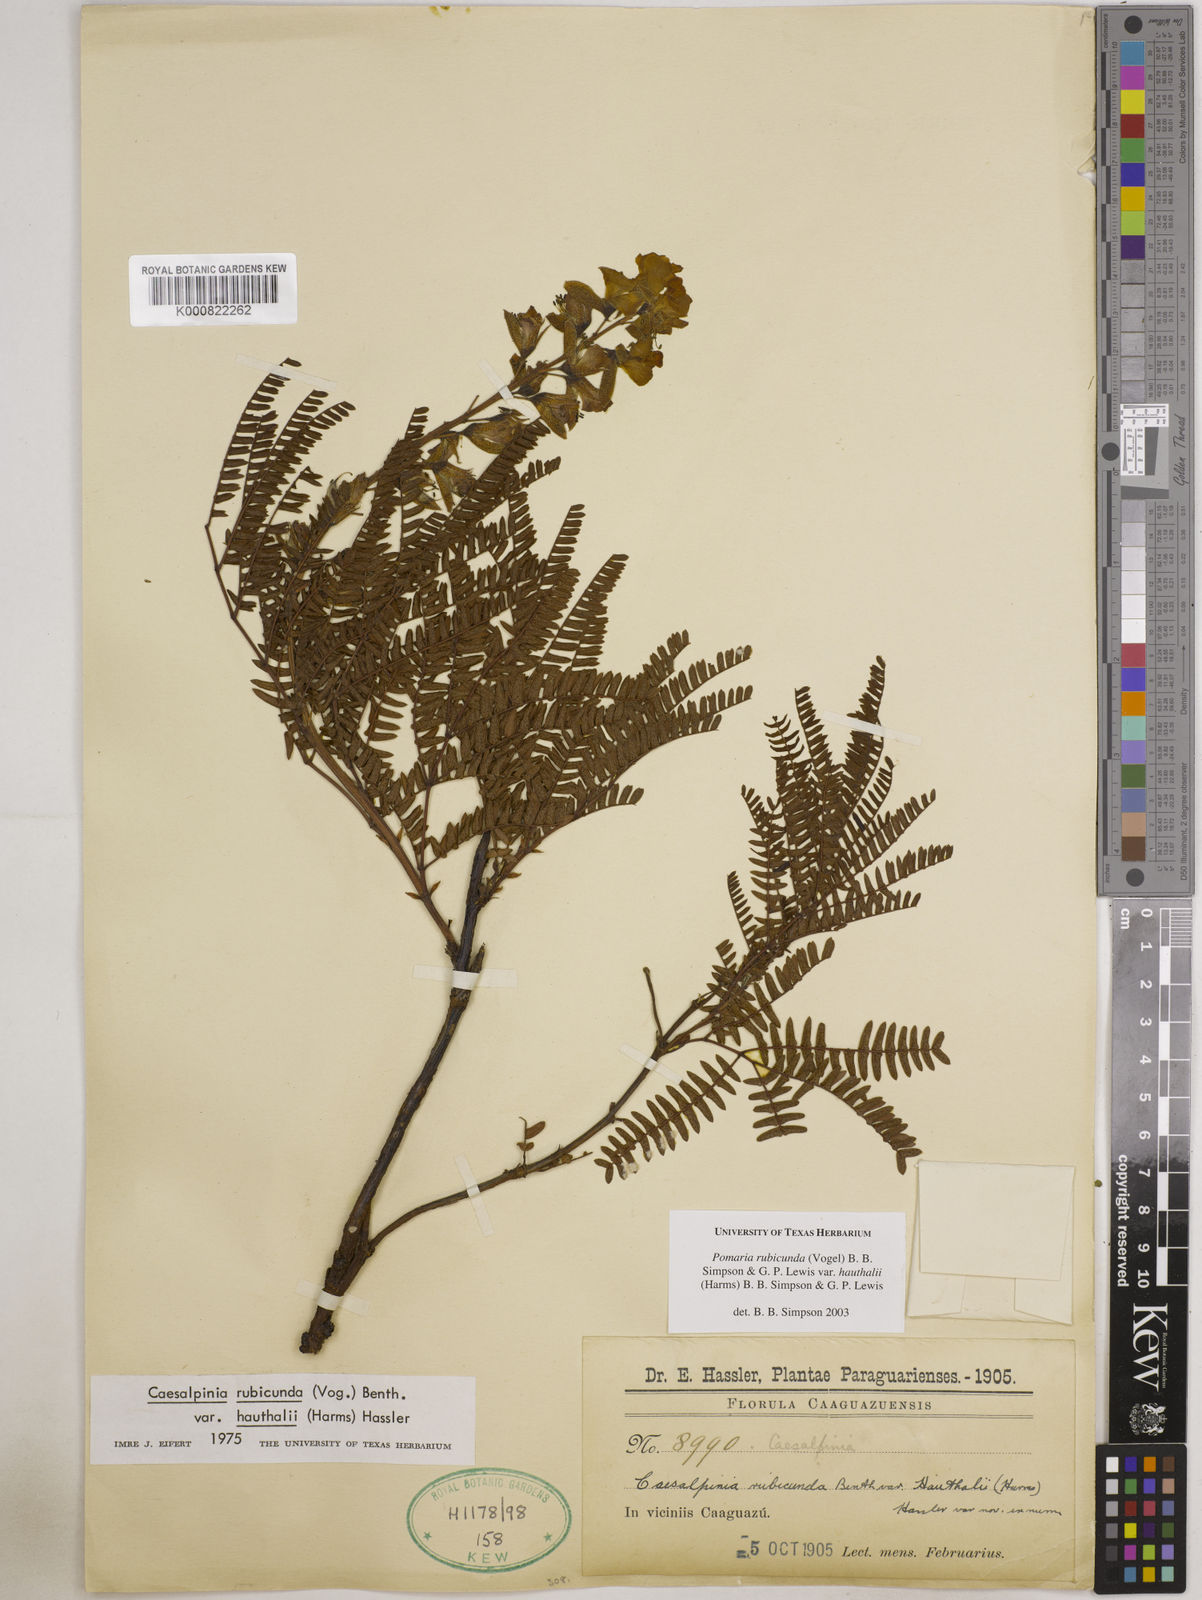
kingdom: Plantae
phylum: Tracheophyta
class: Magnoliopsida
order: Fabales
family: Fabaceae
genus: Pomaria
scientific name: Pomaria rubicunda
